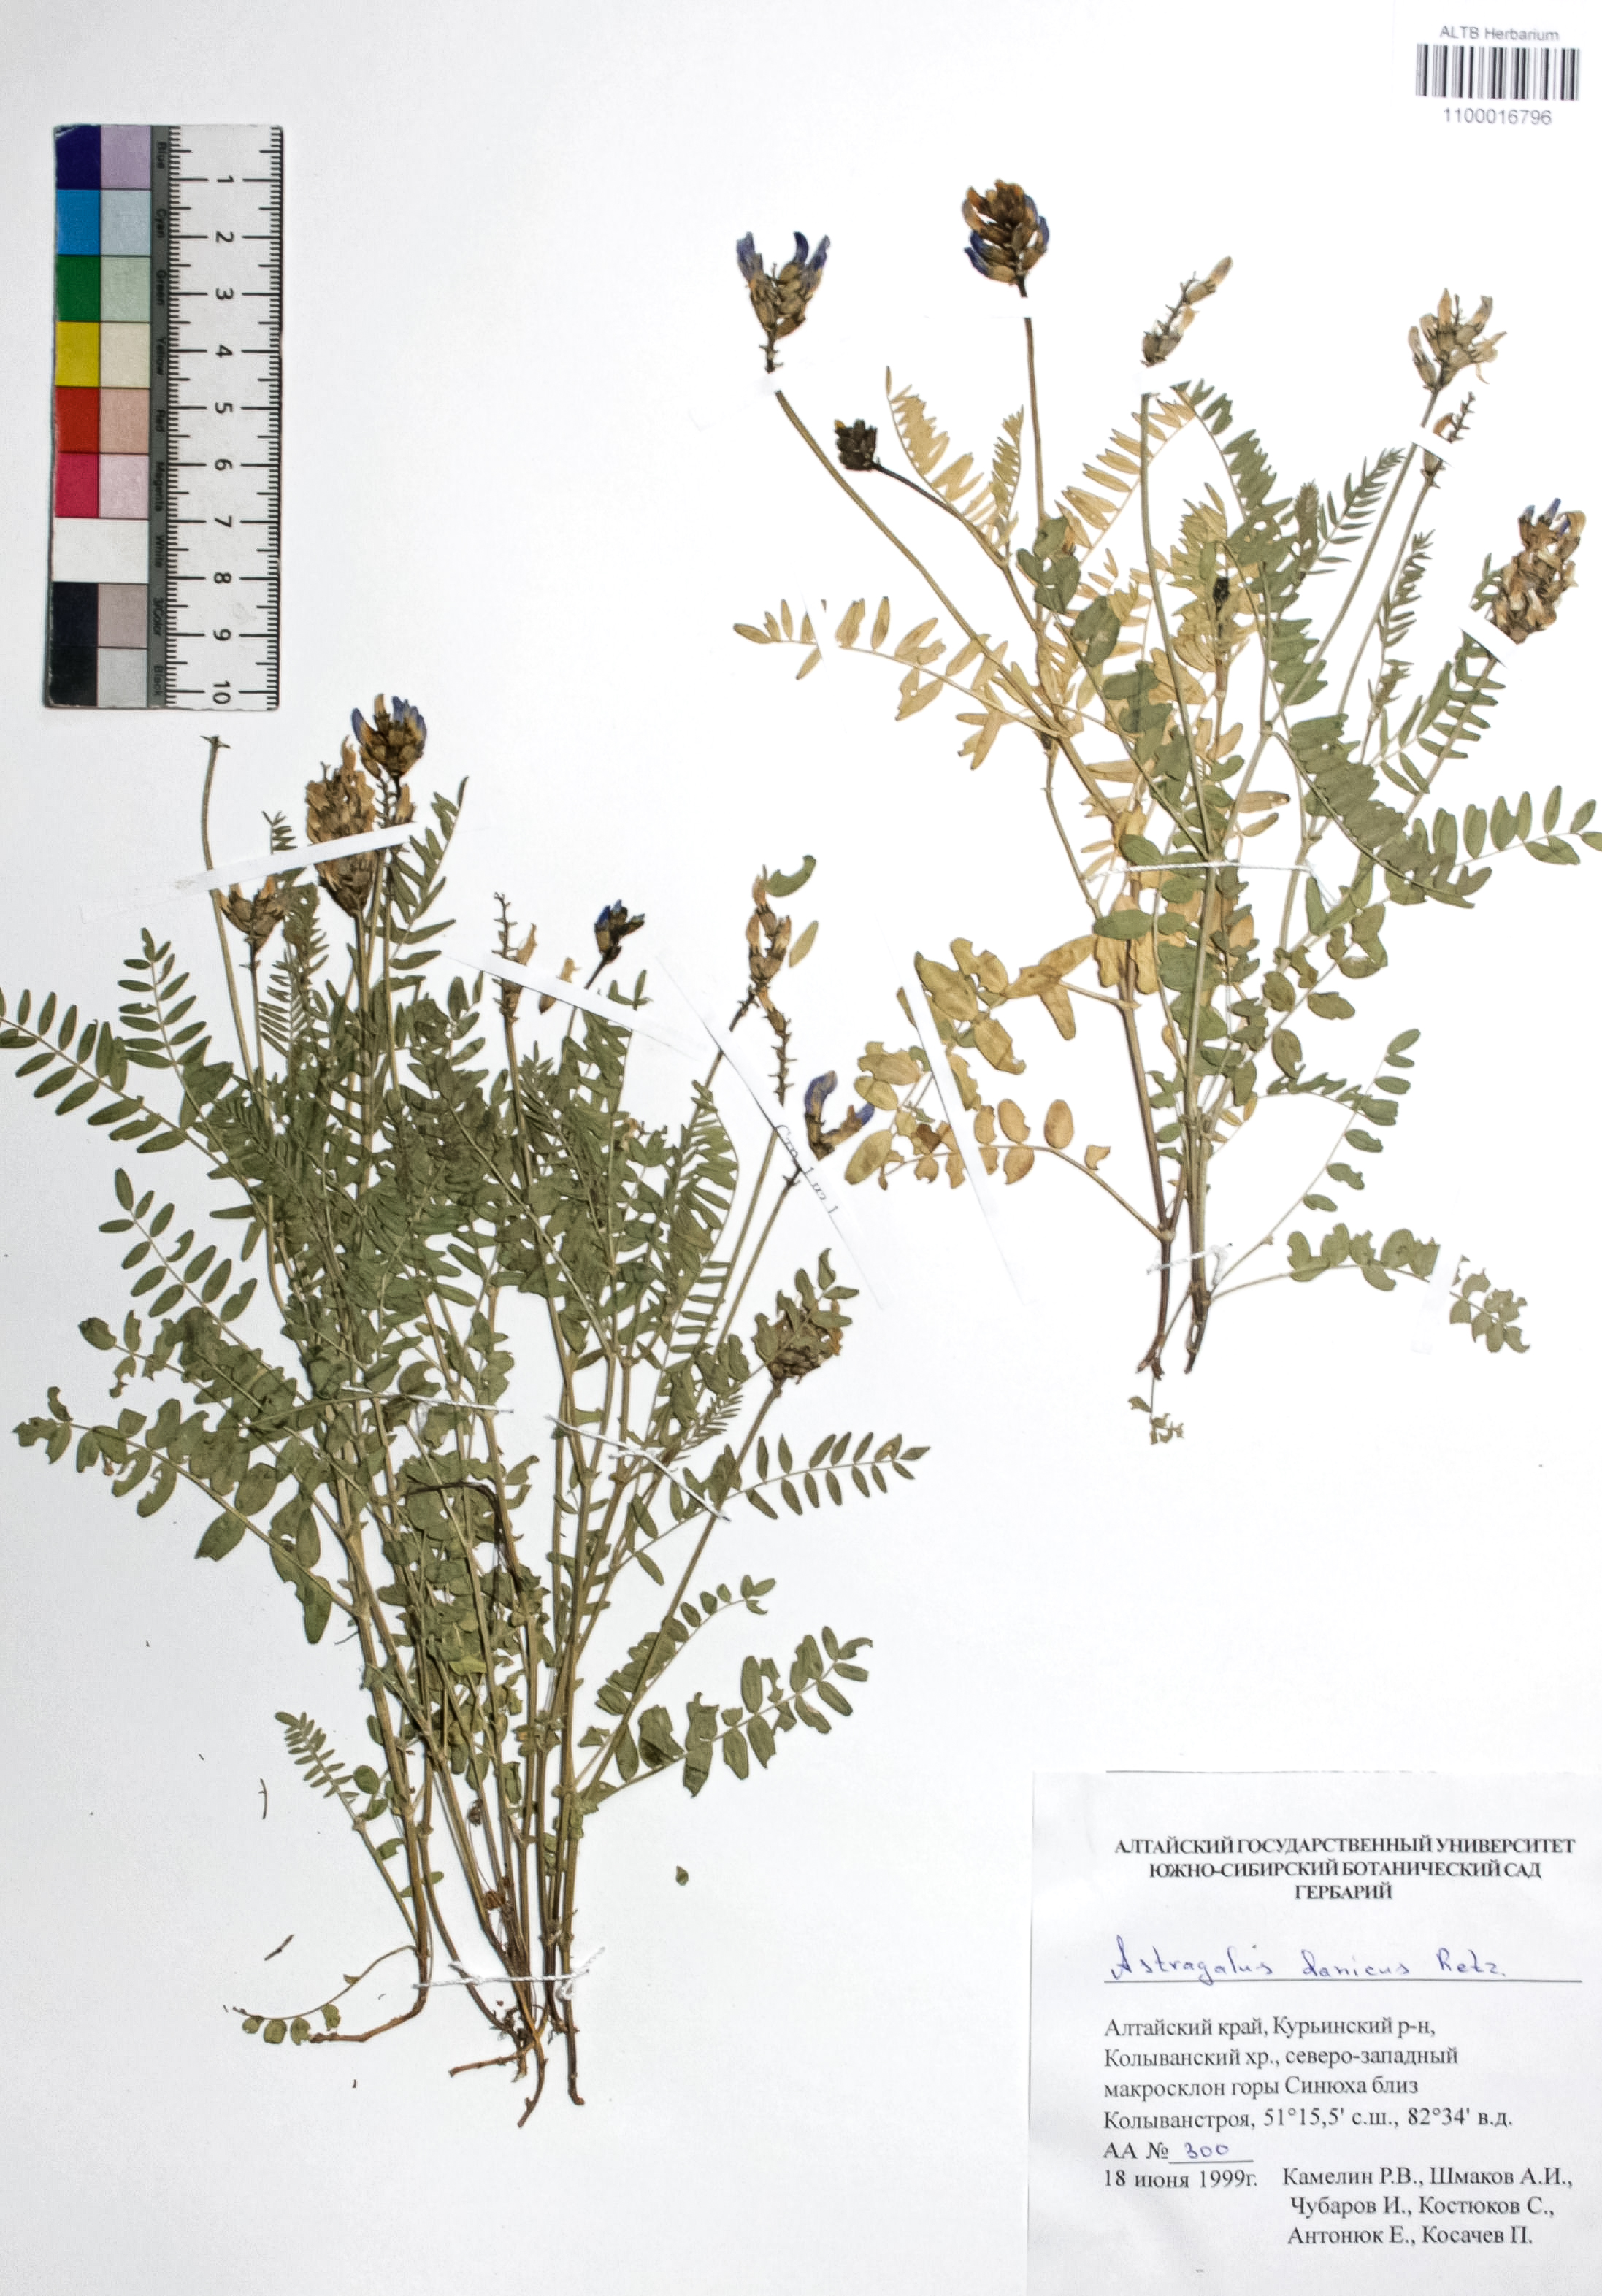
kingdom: Plantae
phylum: Tracheophyta
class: Magnoliopsida
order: Fabales
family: Fabaceae
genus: Astragalus
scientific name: Astragalus danicus
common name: Purple milk-vetch
